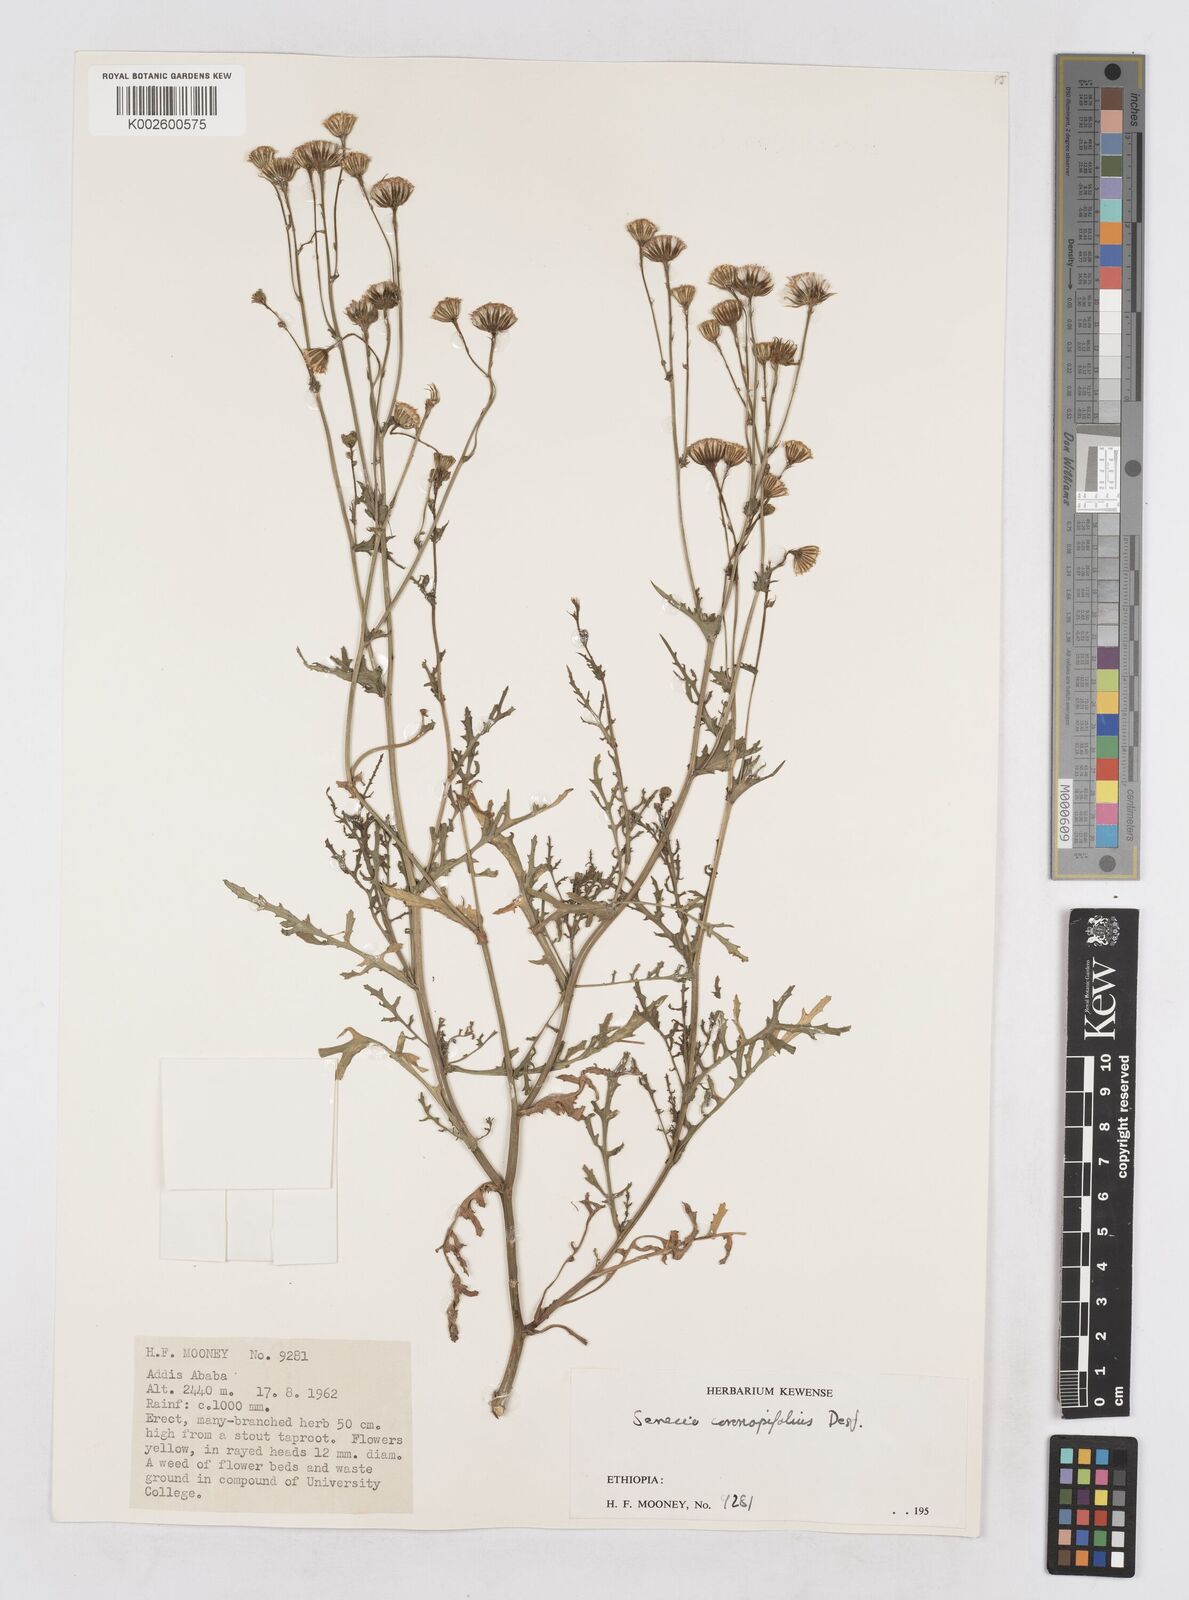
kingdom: Plantae
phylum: Tracheophyta
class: Magnoliopsida
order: Asterales
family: Asteraceae
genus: Senecio
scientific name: Senecio pinnatipartitus
